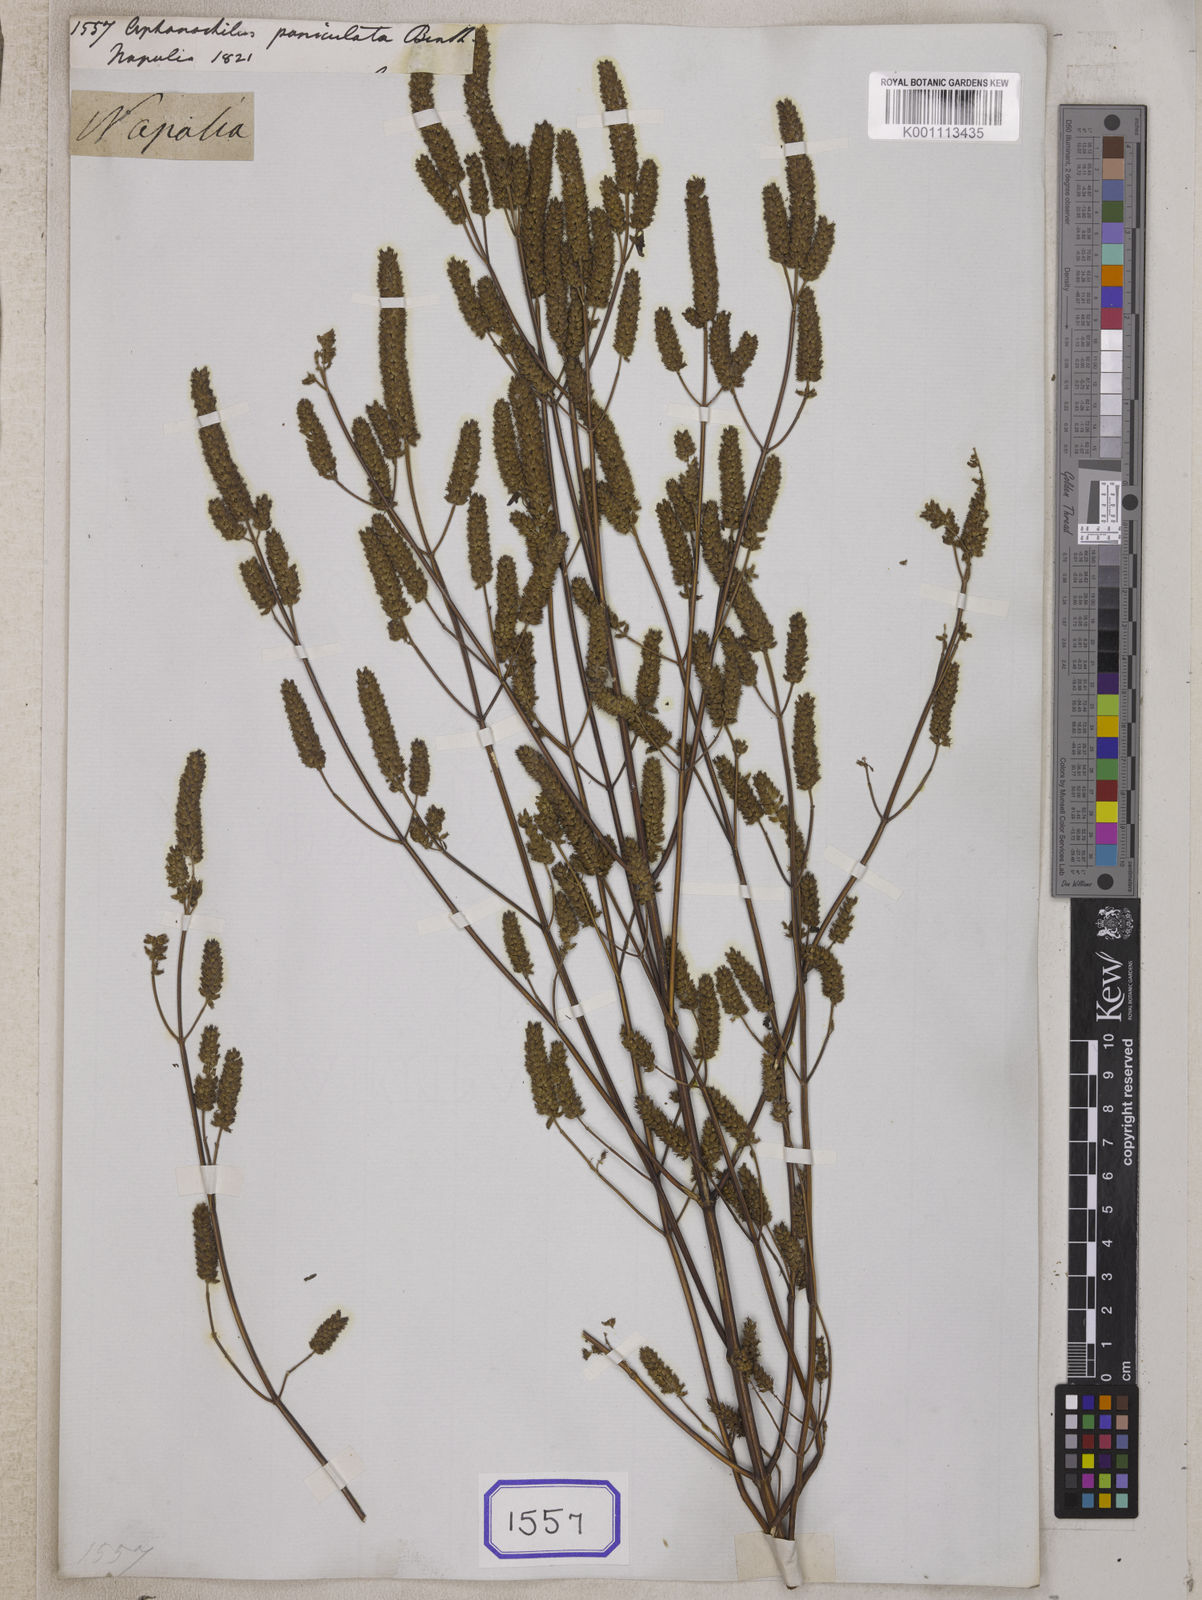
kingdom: Plantae
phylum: Tracheophyta
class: Magnoliopsida
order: Lamiales
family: Lamiaceae
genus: Elsholtzia
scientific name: Elsholtzia stachyodes
